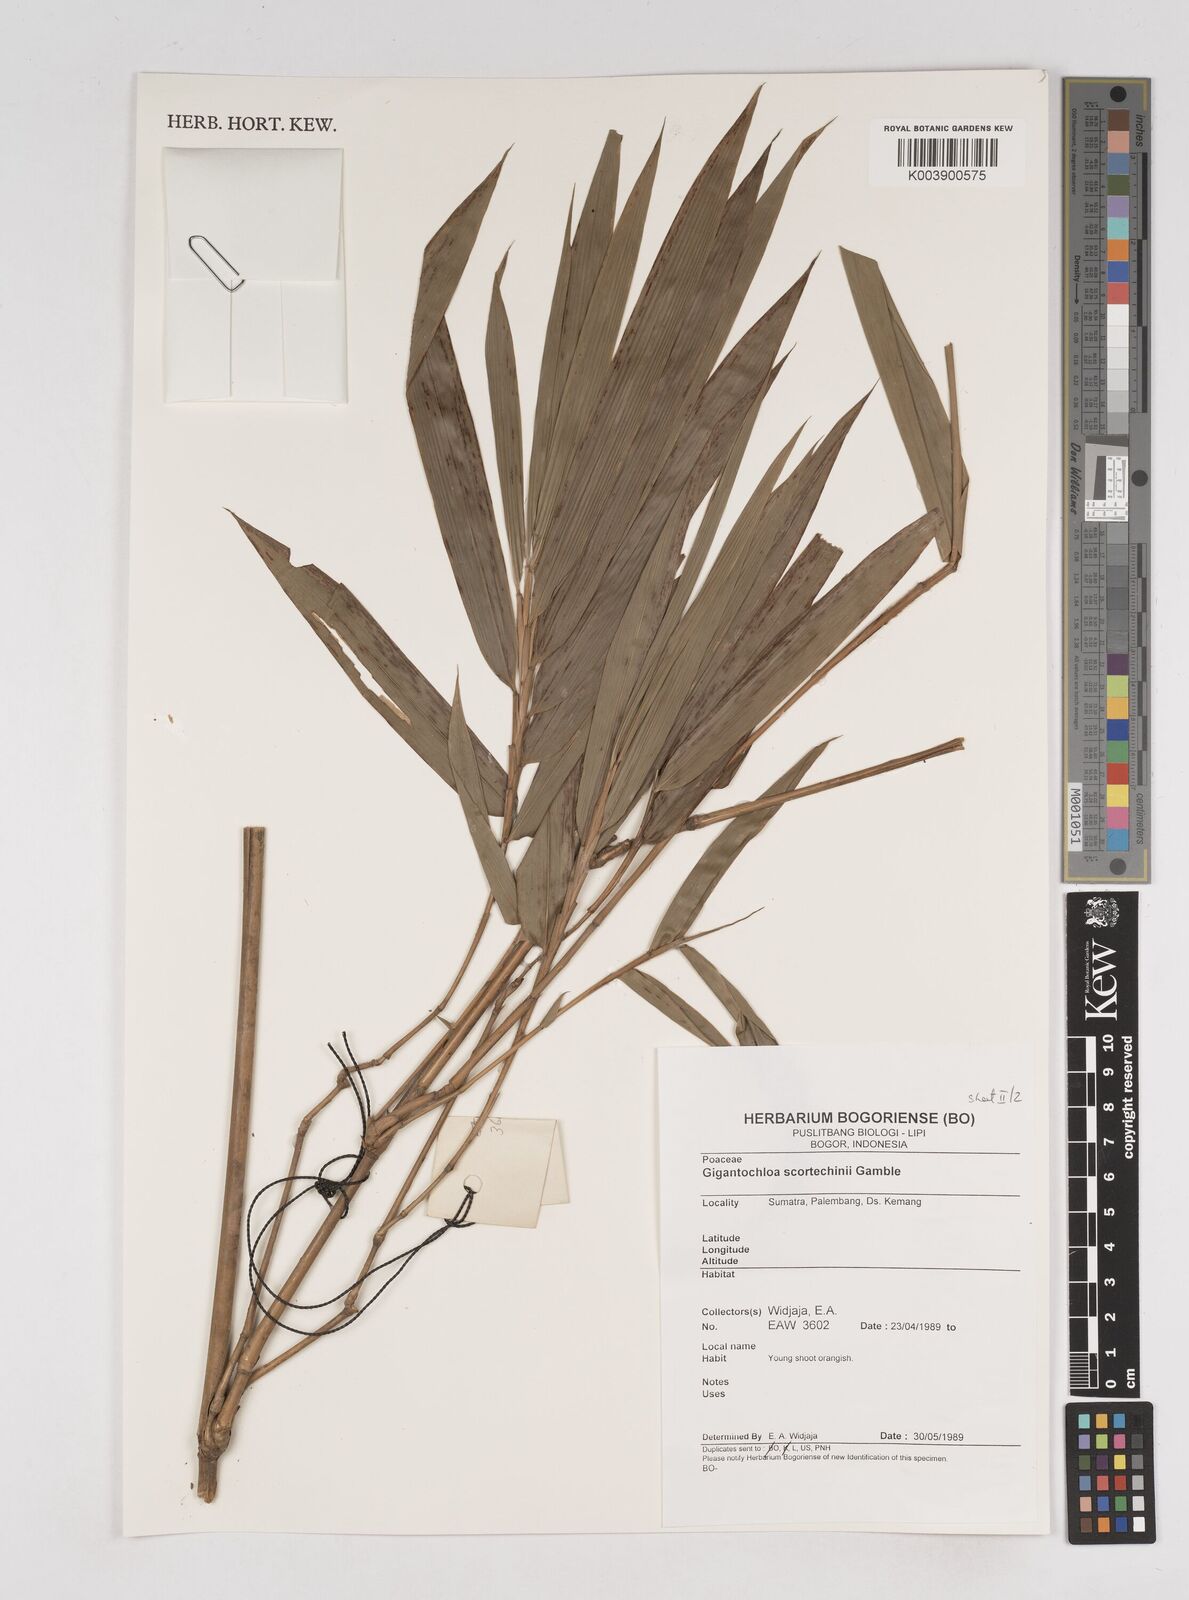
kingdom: Plantae
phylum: Tracheophyta
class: Liliopsida
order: Poales
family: Poaceae
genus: Gigantochloa
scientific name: Gigantochloa scortechinii
